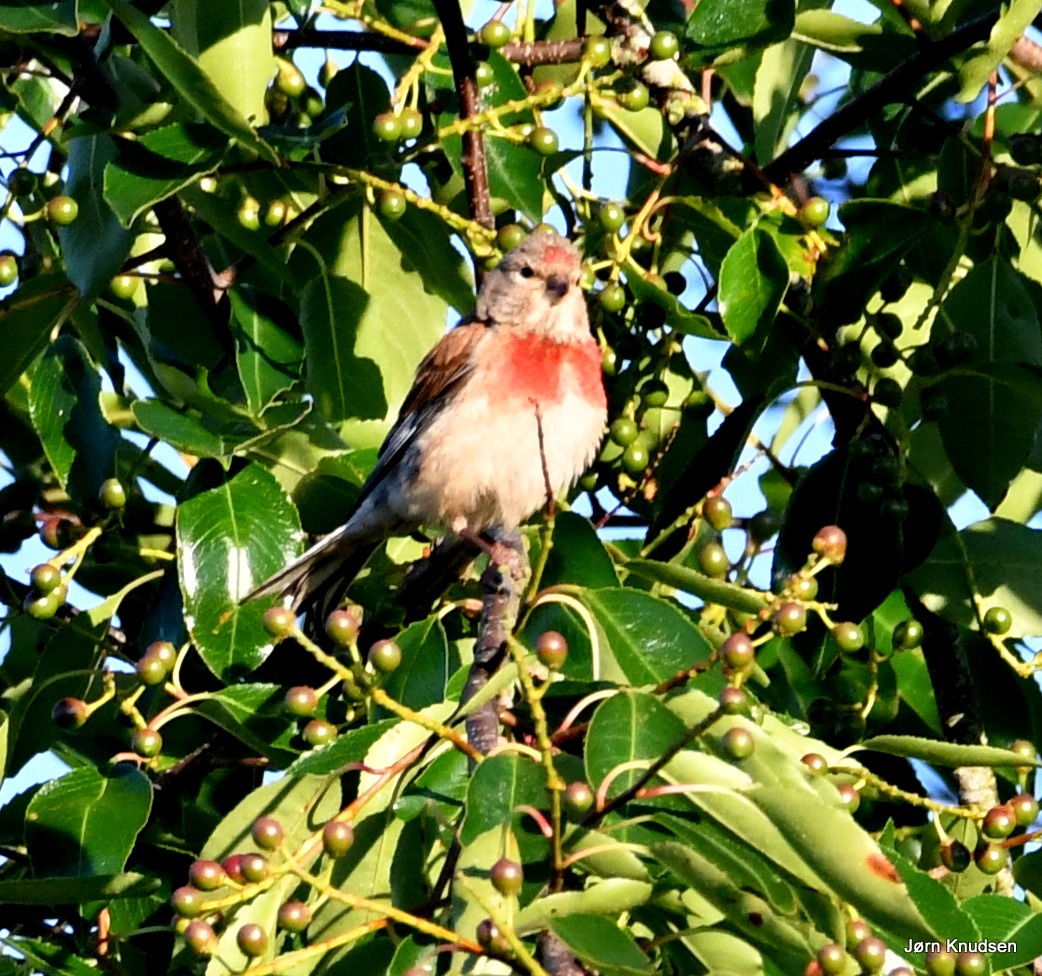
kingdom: Animalia
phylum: Chordata
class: Aves
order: Passeriformes
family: Fringillidae
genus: Linaria
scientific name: Linaria cannabina
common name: Tornirisk
